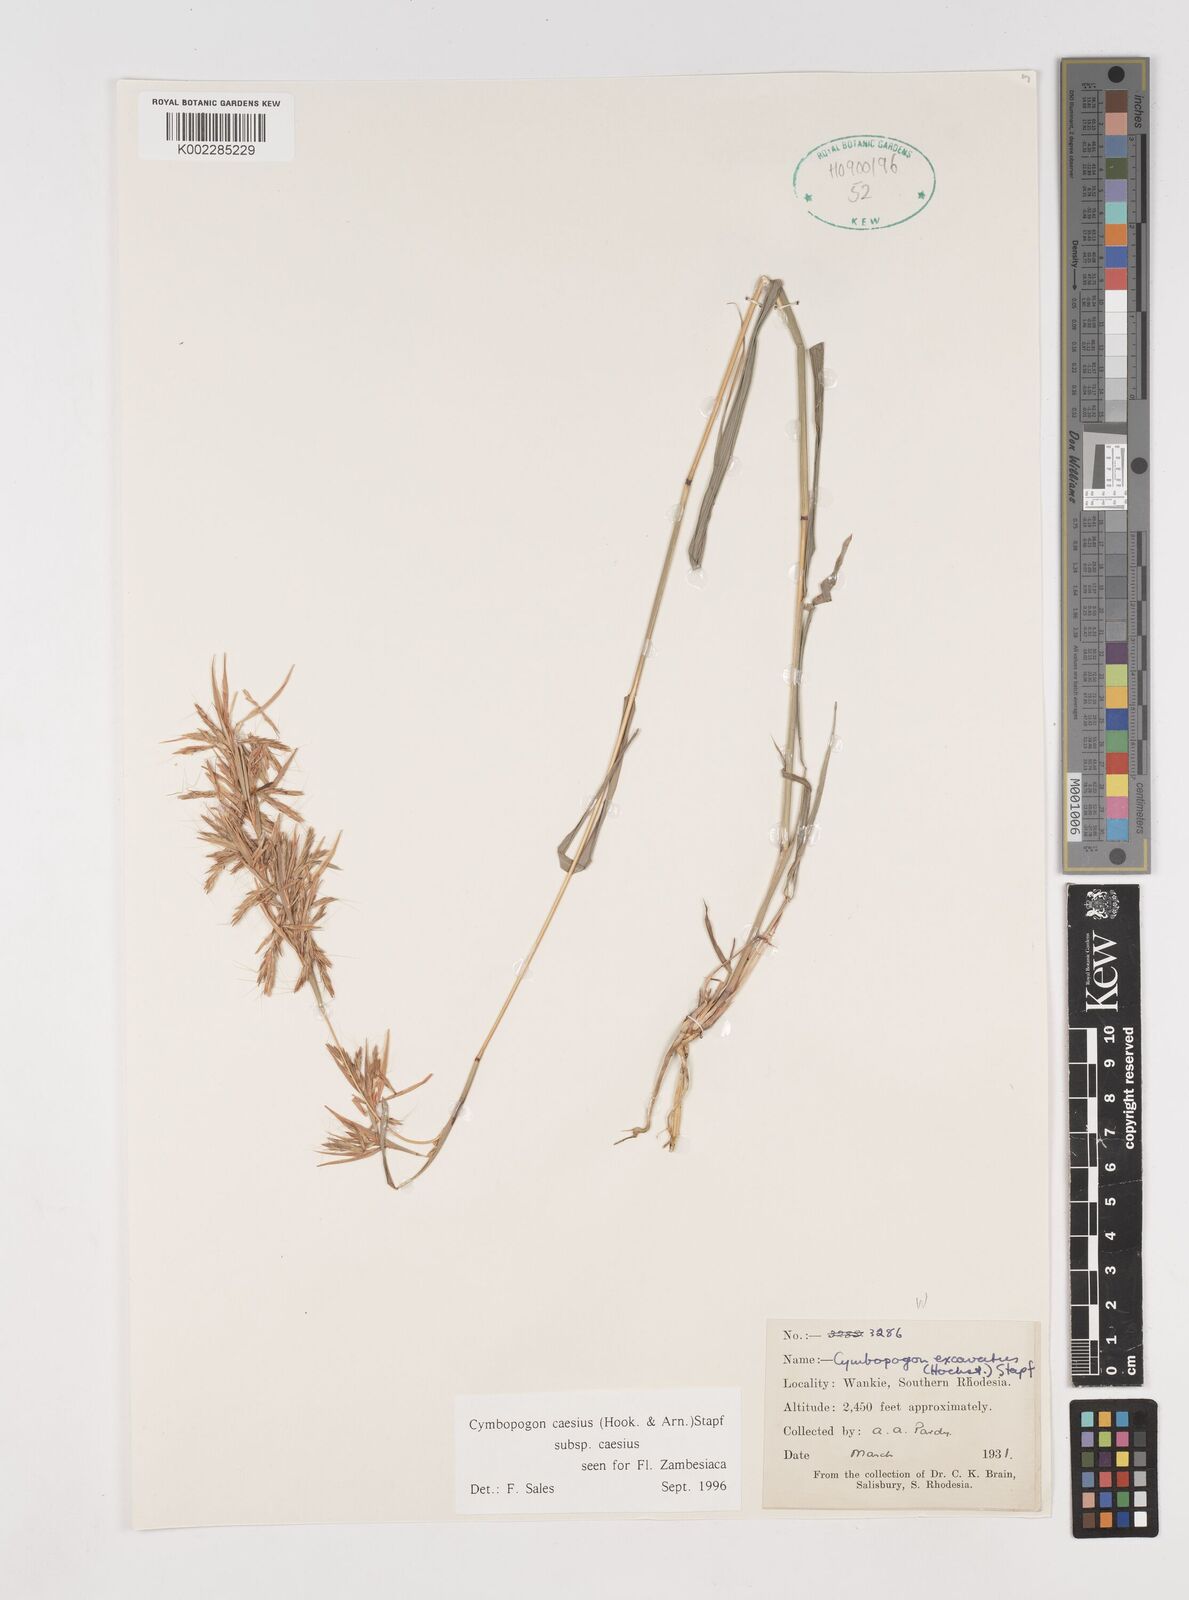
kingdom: Plantae
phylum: Tracheophyta
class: Liliopsida
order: Poales
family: Poaceae
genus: Cymbopogon
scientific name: Cymbopogon caesius
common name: Kachi grass
